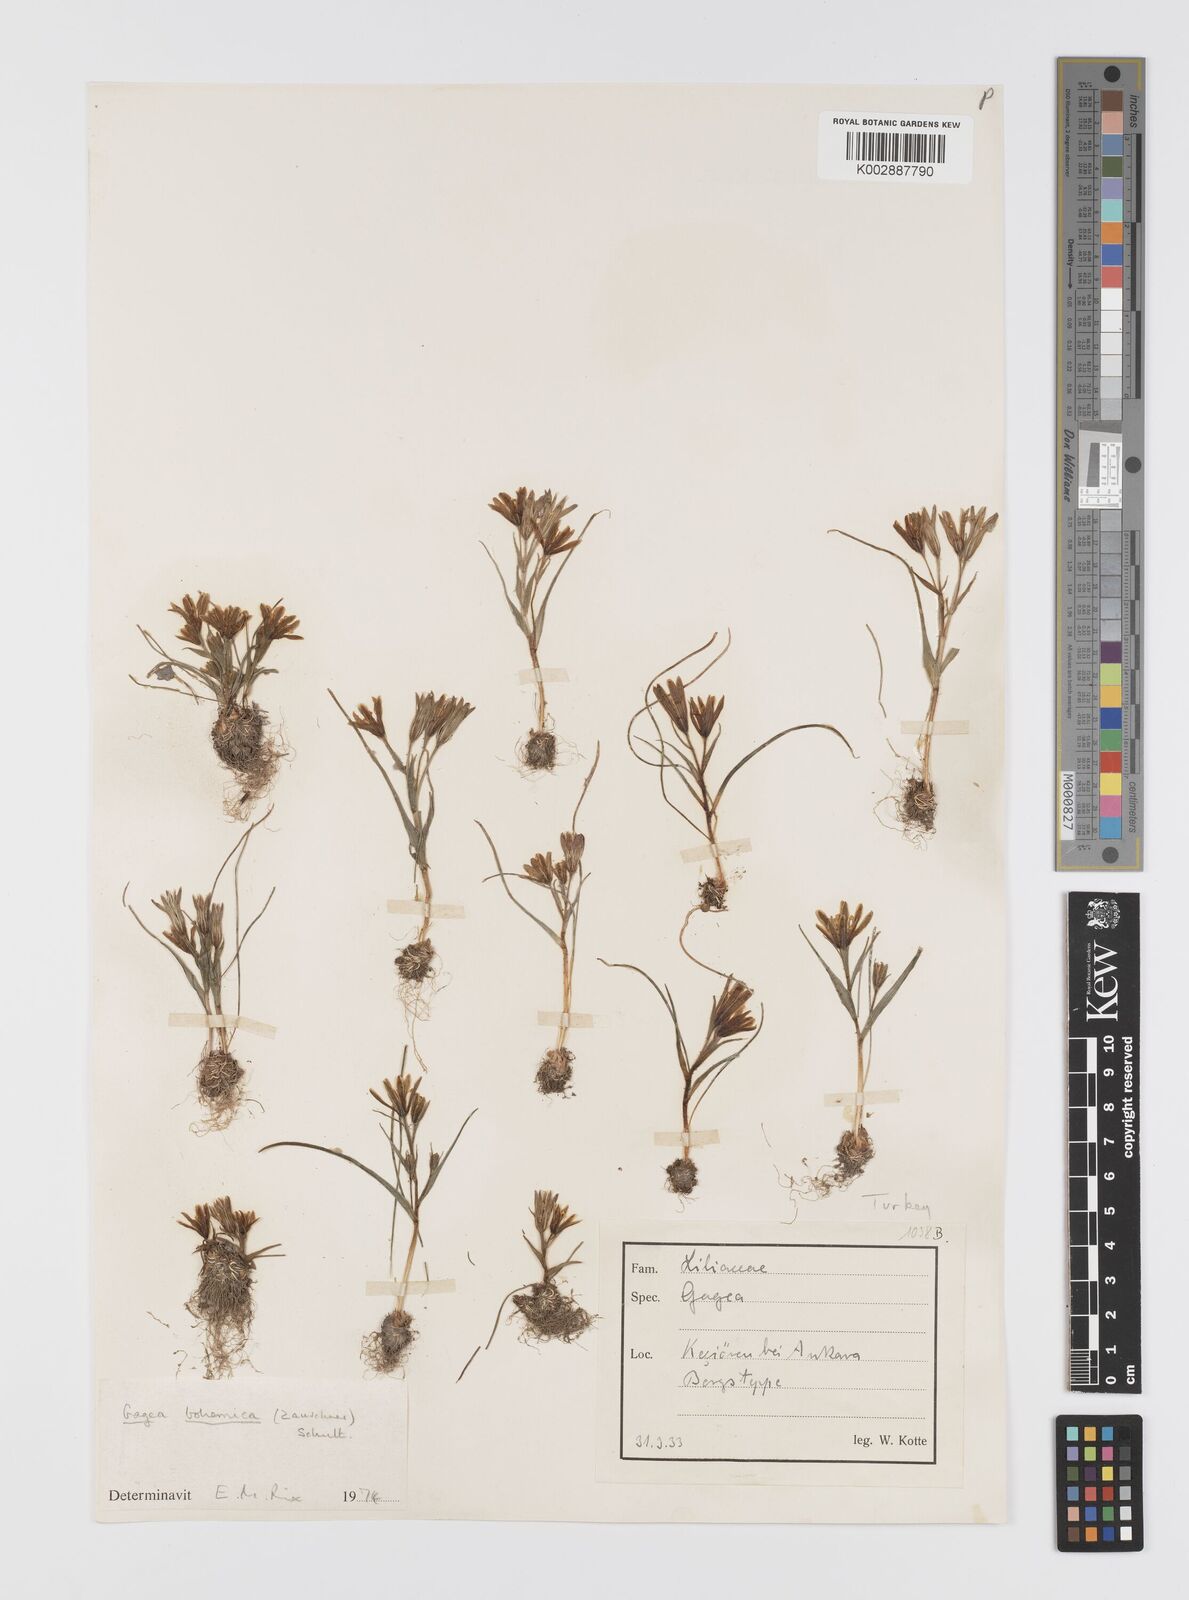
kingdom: Plantae
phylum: Tracheophyta
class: Liliopsida
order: Liliales
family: Liliaceae
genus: Gagea
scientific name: Gagea bohemica
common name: Early star-of-bethlehem
